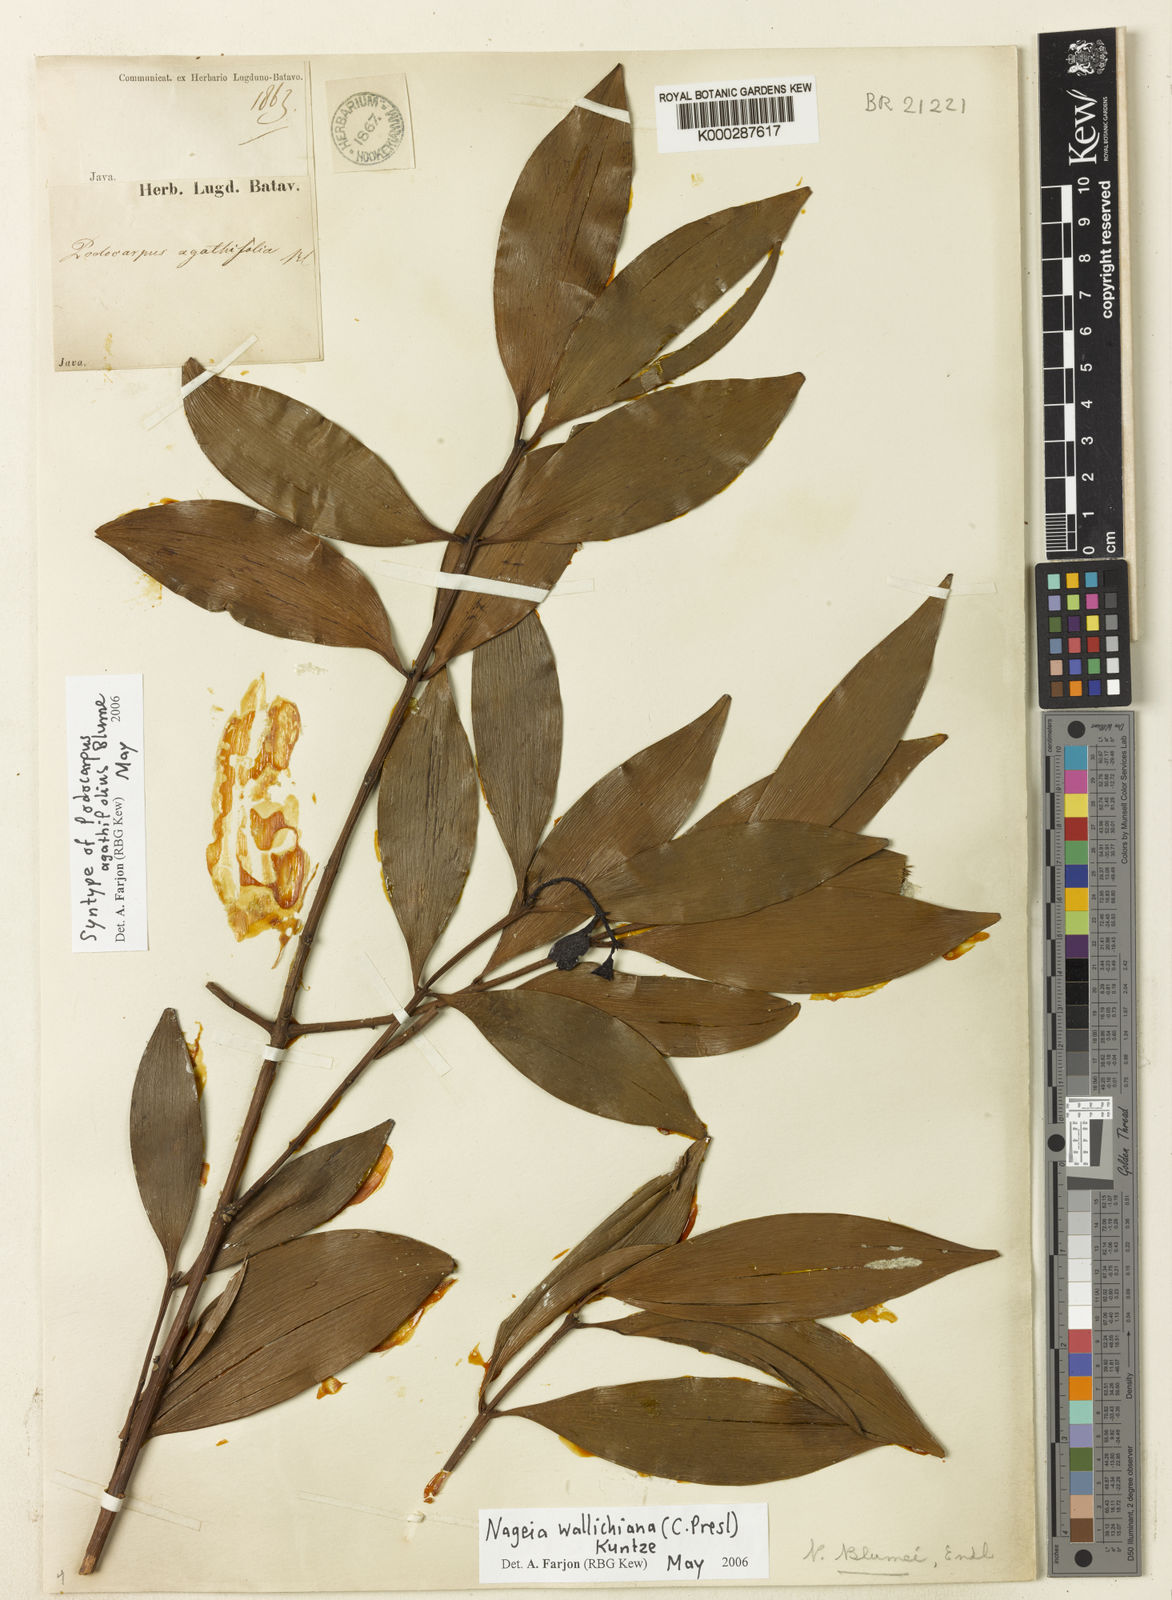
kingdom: Plantae
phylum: Tracheophyta
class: Pinopsida
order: Pinales
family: Podocarpaceae
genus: Nageia
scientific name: Nageia wallichiana
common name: Brown's-pine
